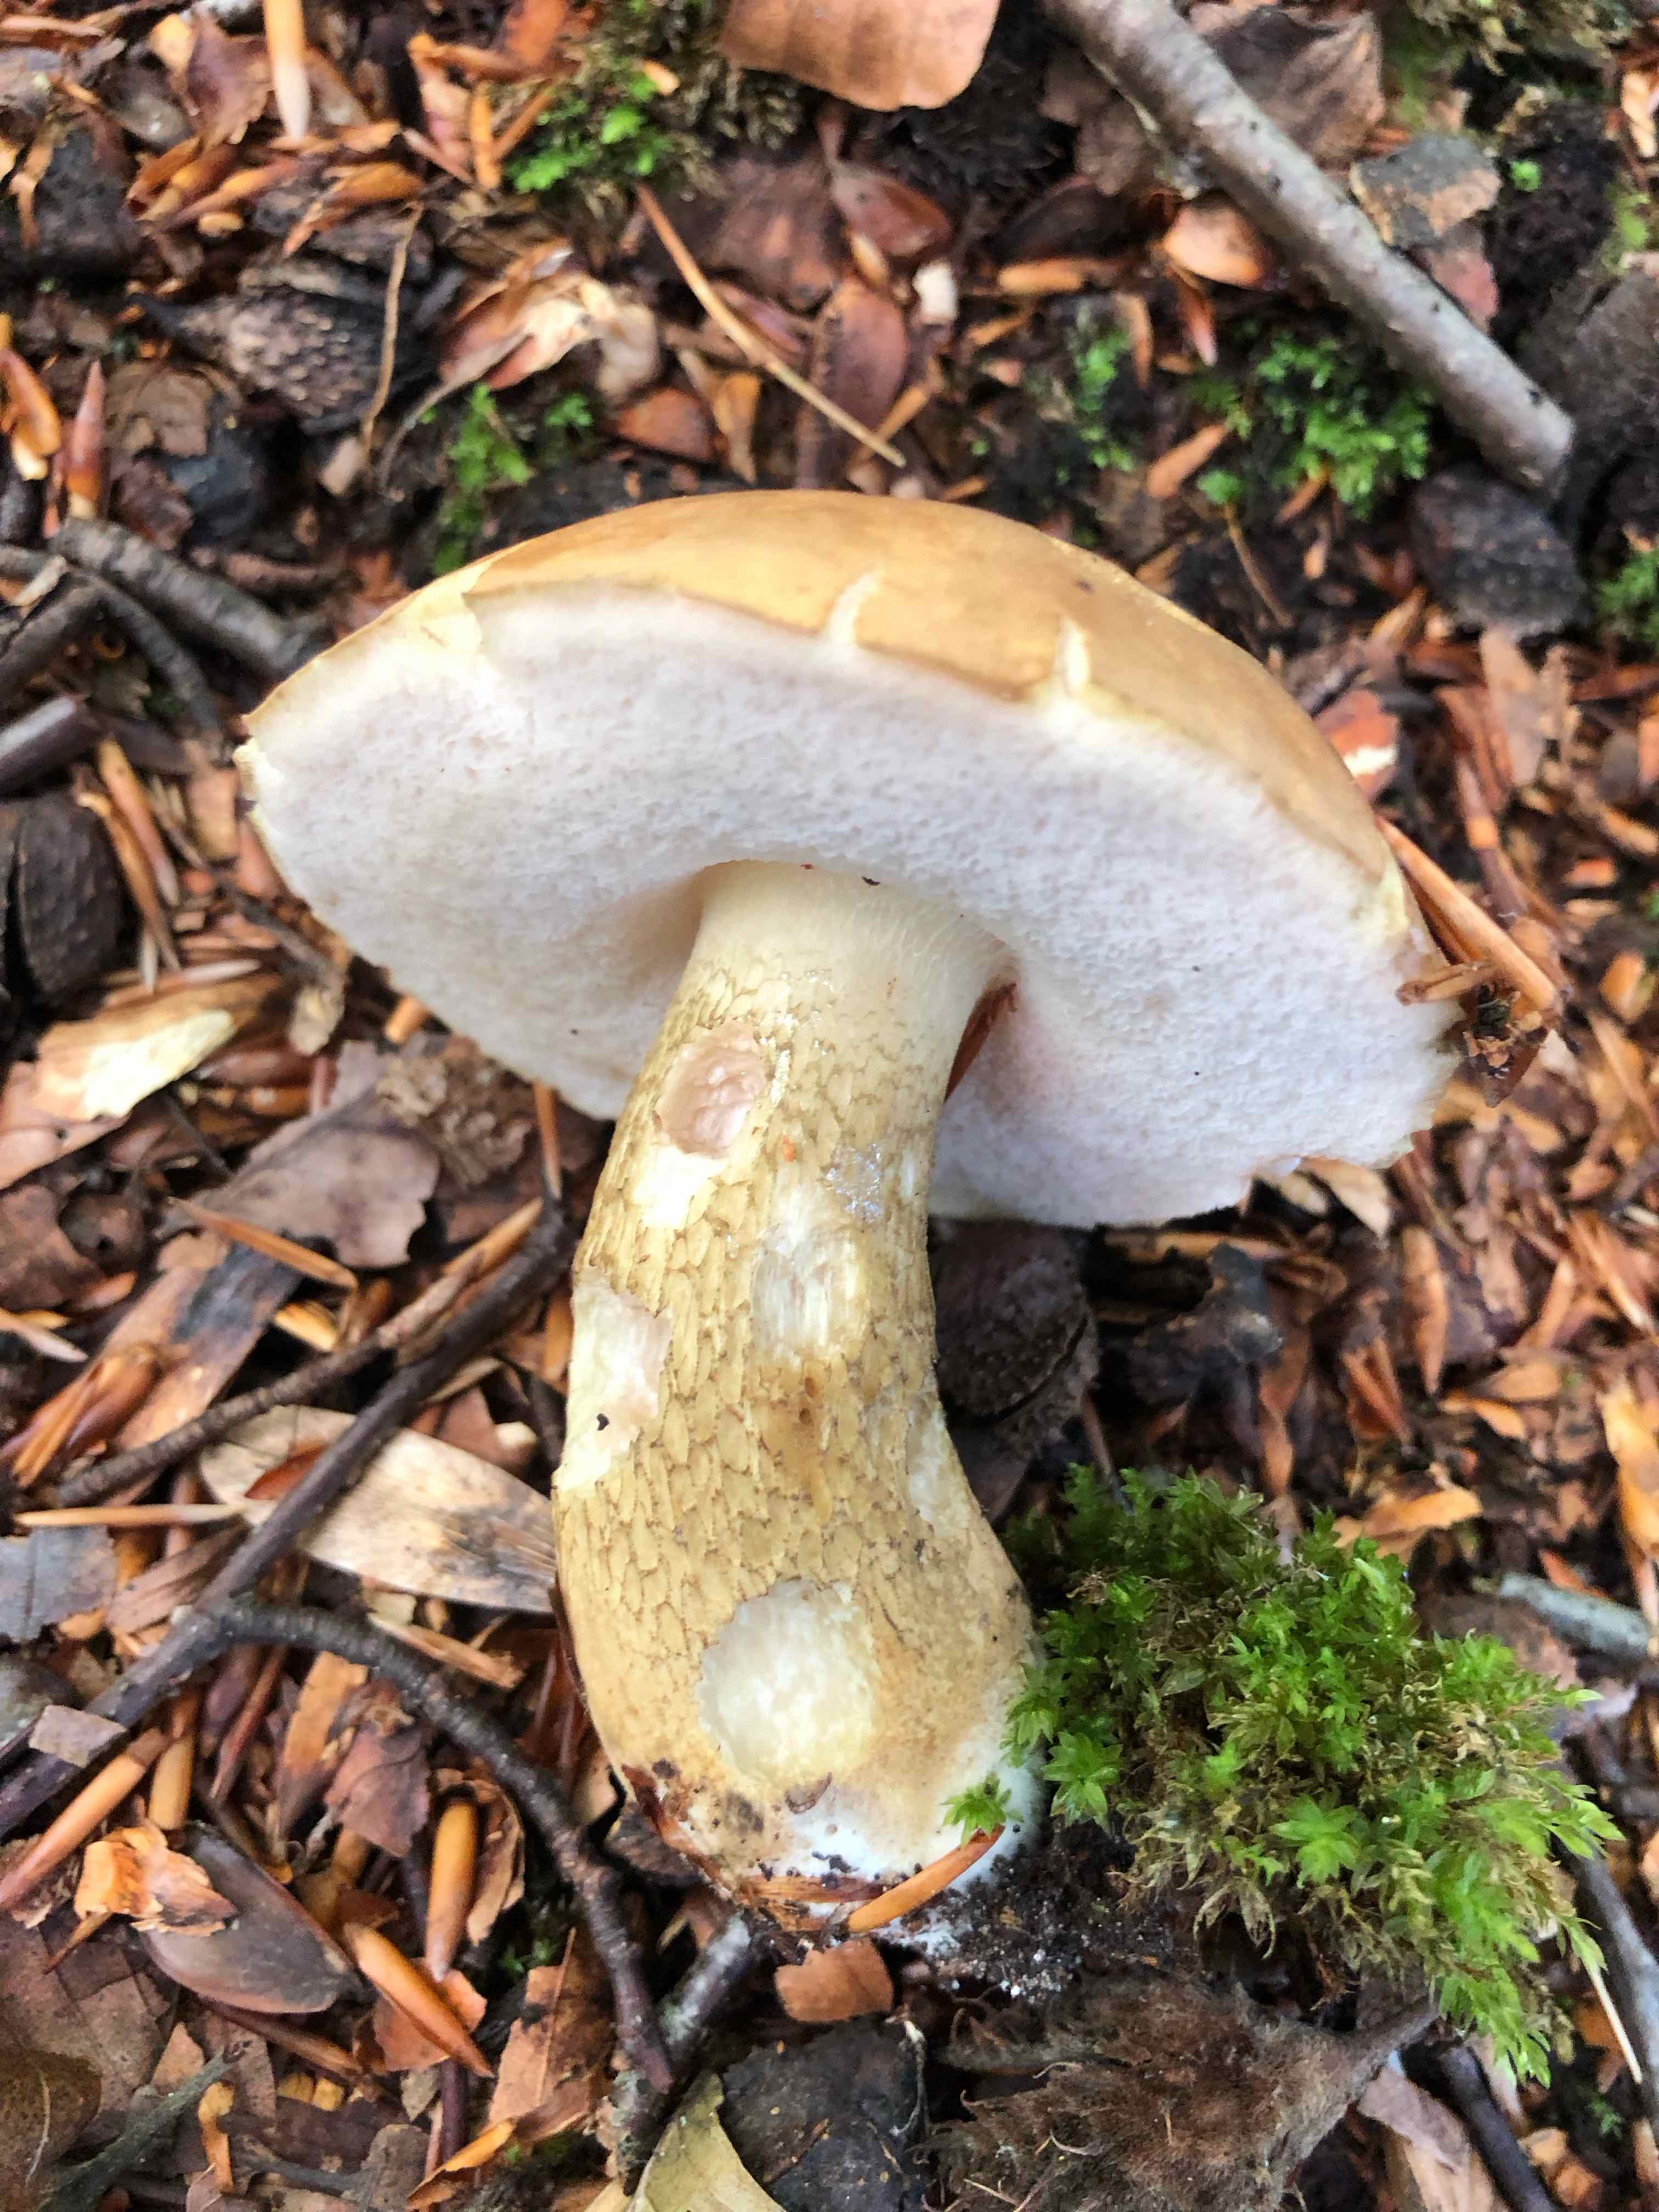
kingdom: Fungi
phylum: Basidiomycota
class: Agaricomycetes
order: Boletales
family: Boletaceae
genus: Tylopilus
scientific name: Tylopilus felleus
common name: galderørhat
